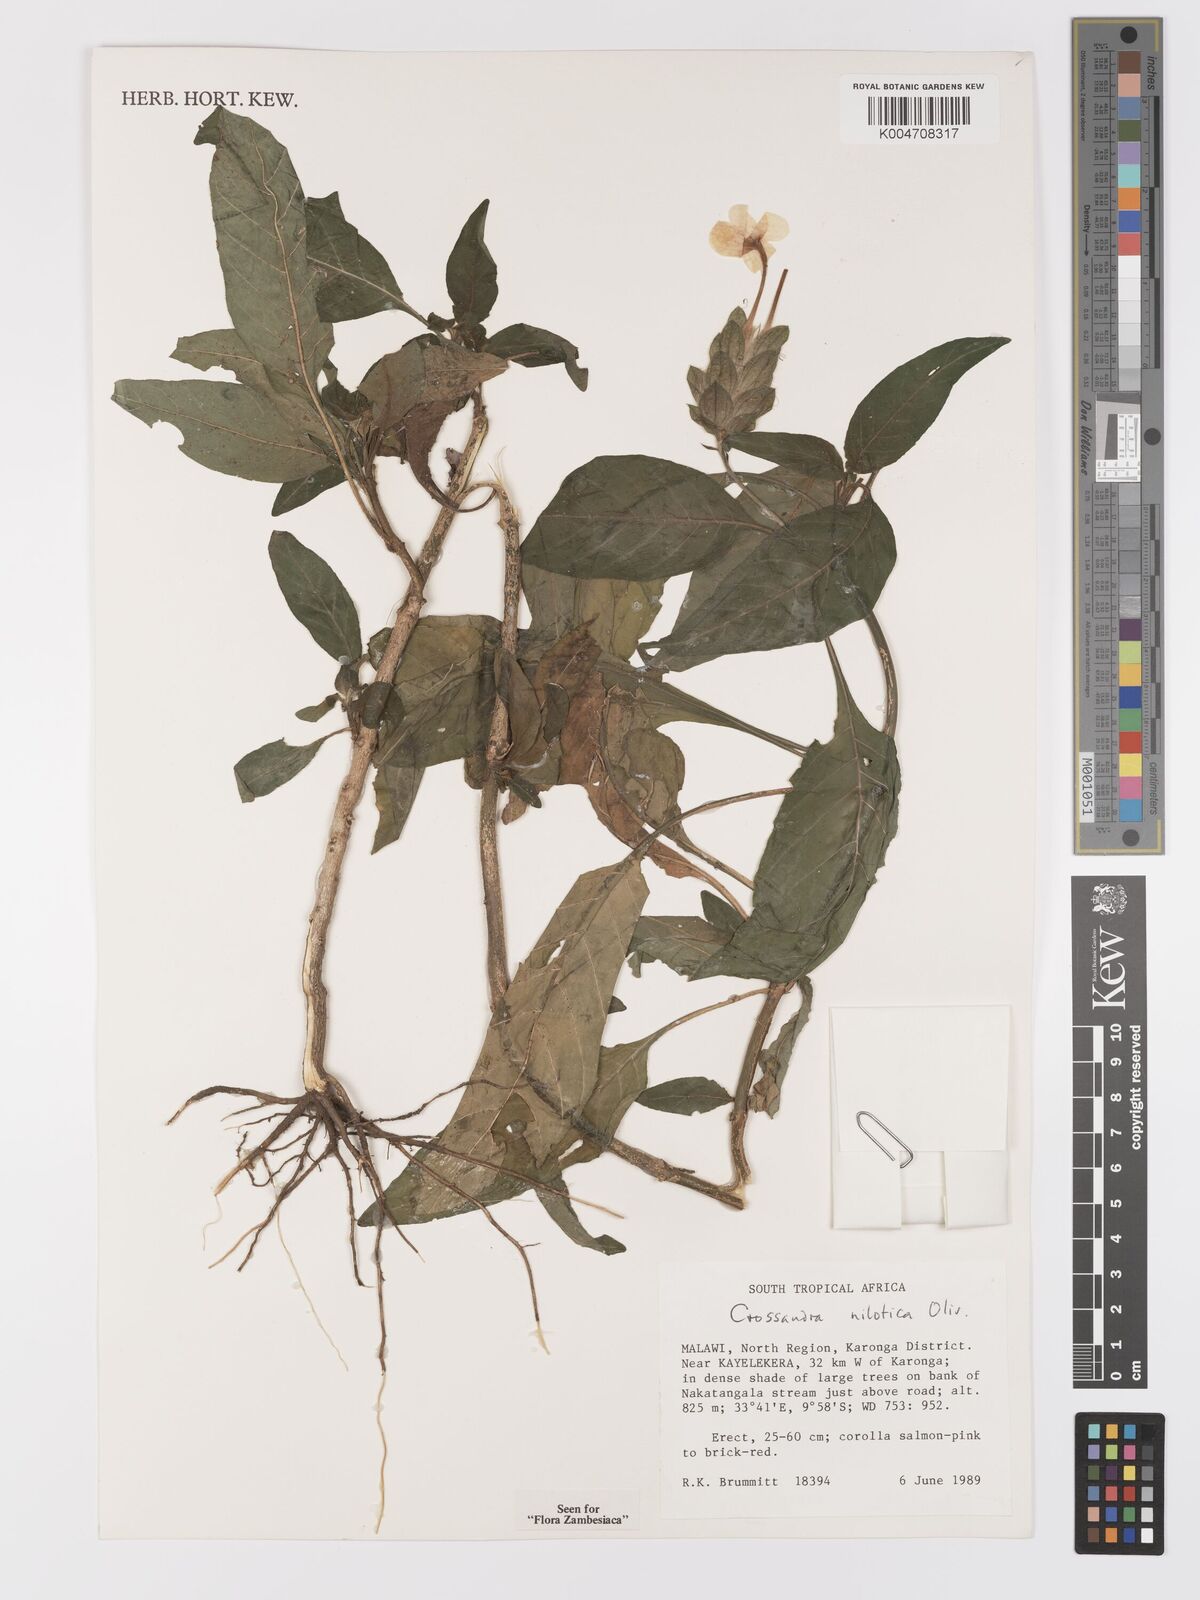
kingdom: Plantae
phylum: Tracheophyta
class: Magnoliopsida
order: Lamiales
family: Acanthaceae
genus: Crossandra
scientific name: Crossandra nilotica
